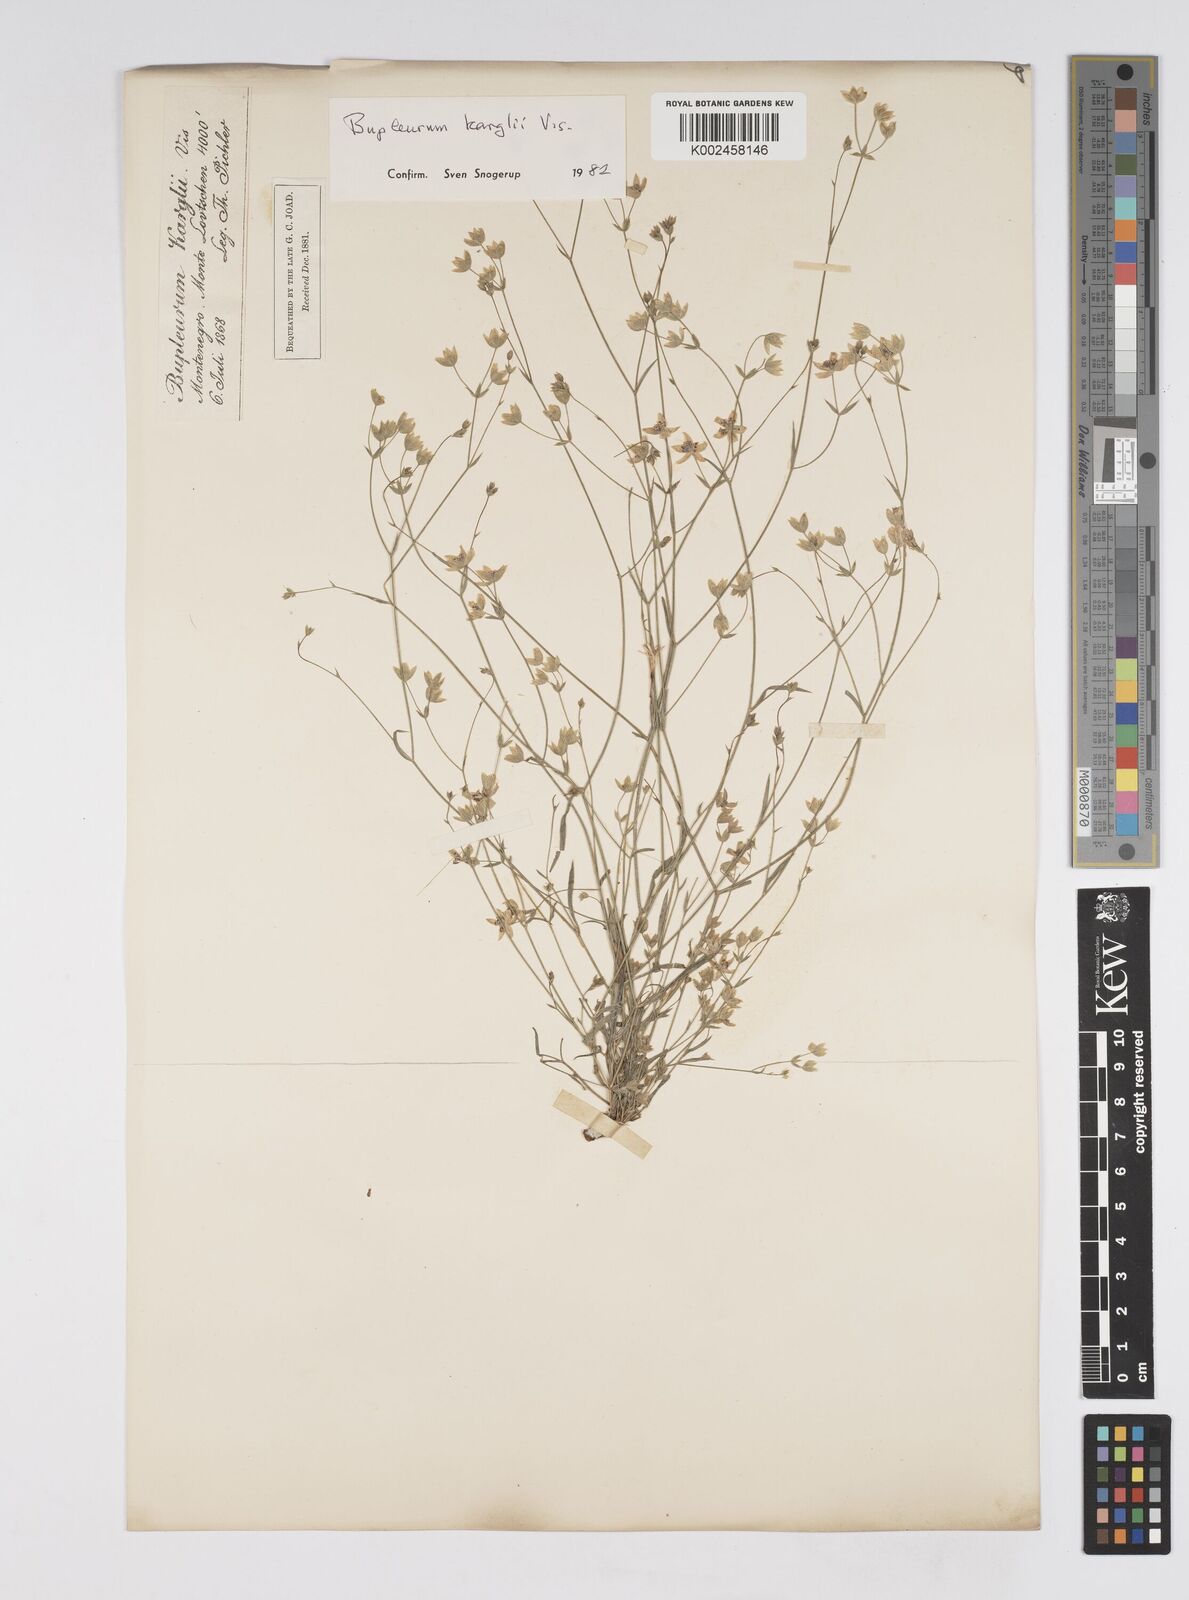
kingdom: Plantae
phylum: Tracheophyta
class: Magnoliopsida
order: Apiales
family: Apiaceae
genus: Bupleurum
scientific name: Bupleurum karglii
